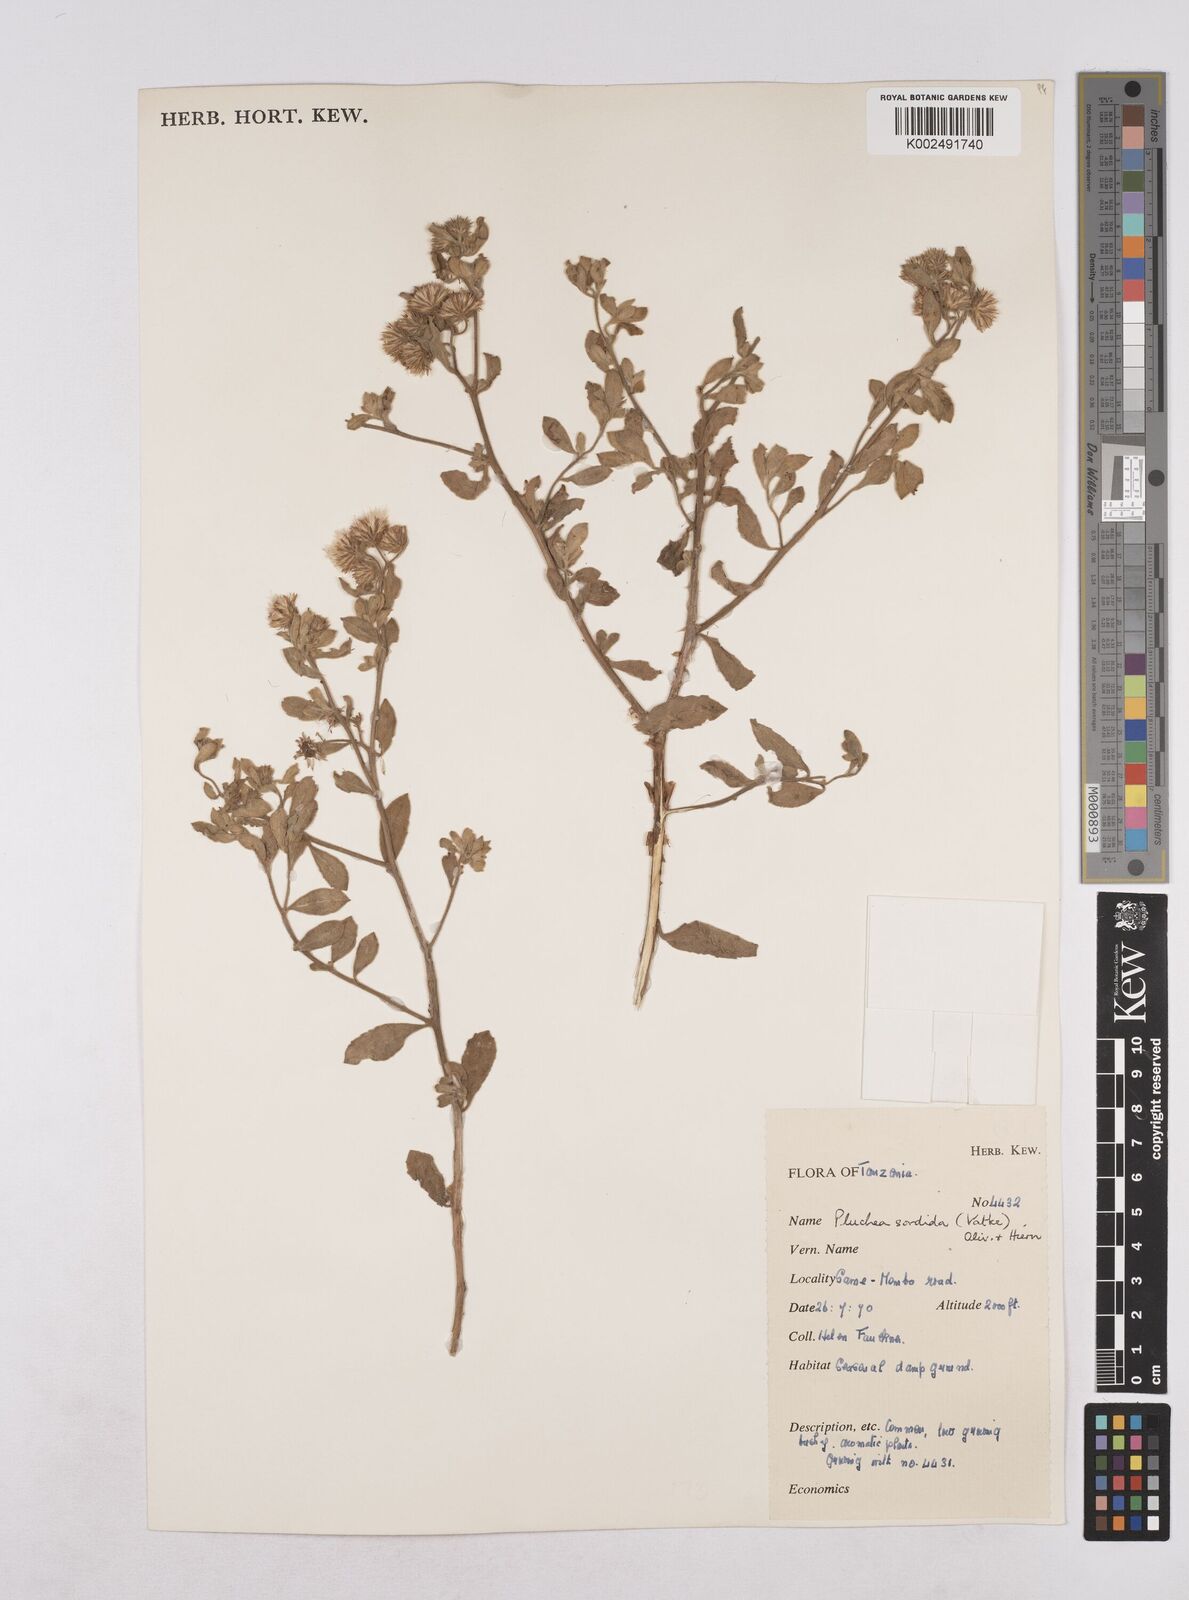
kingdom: Plantae
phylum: Tracheophyta
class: Magnoliopsida
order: Asterales
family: Asteraceae
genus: Pluchea
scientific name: Pluchea sordida
